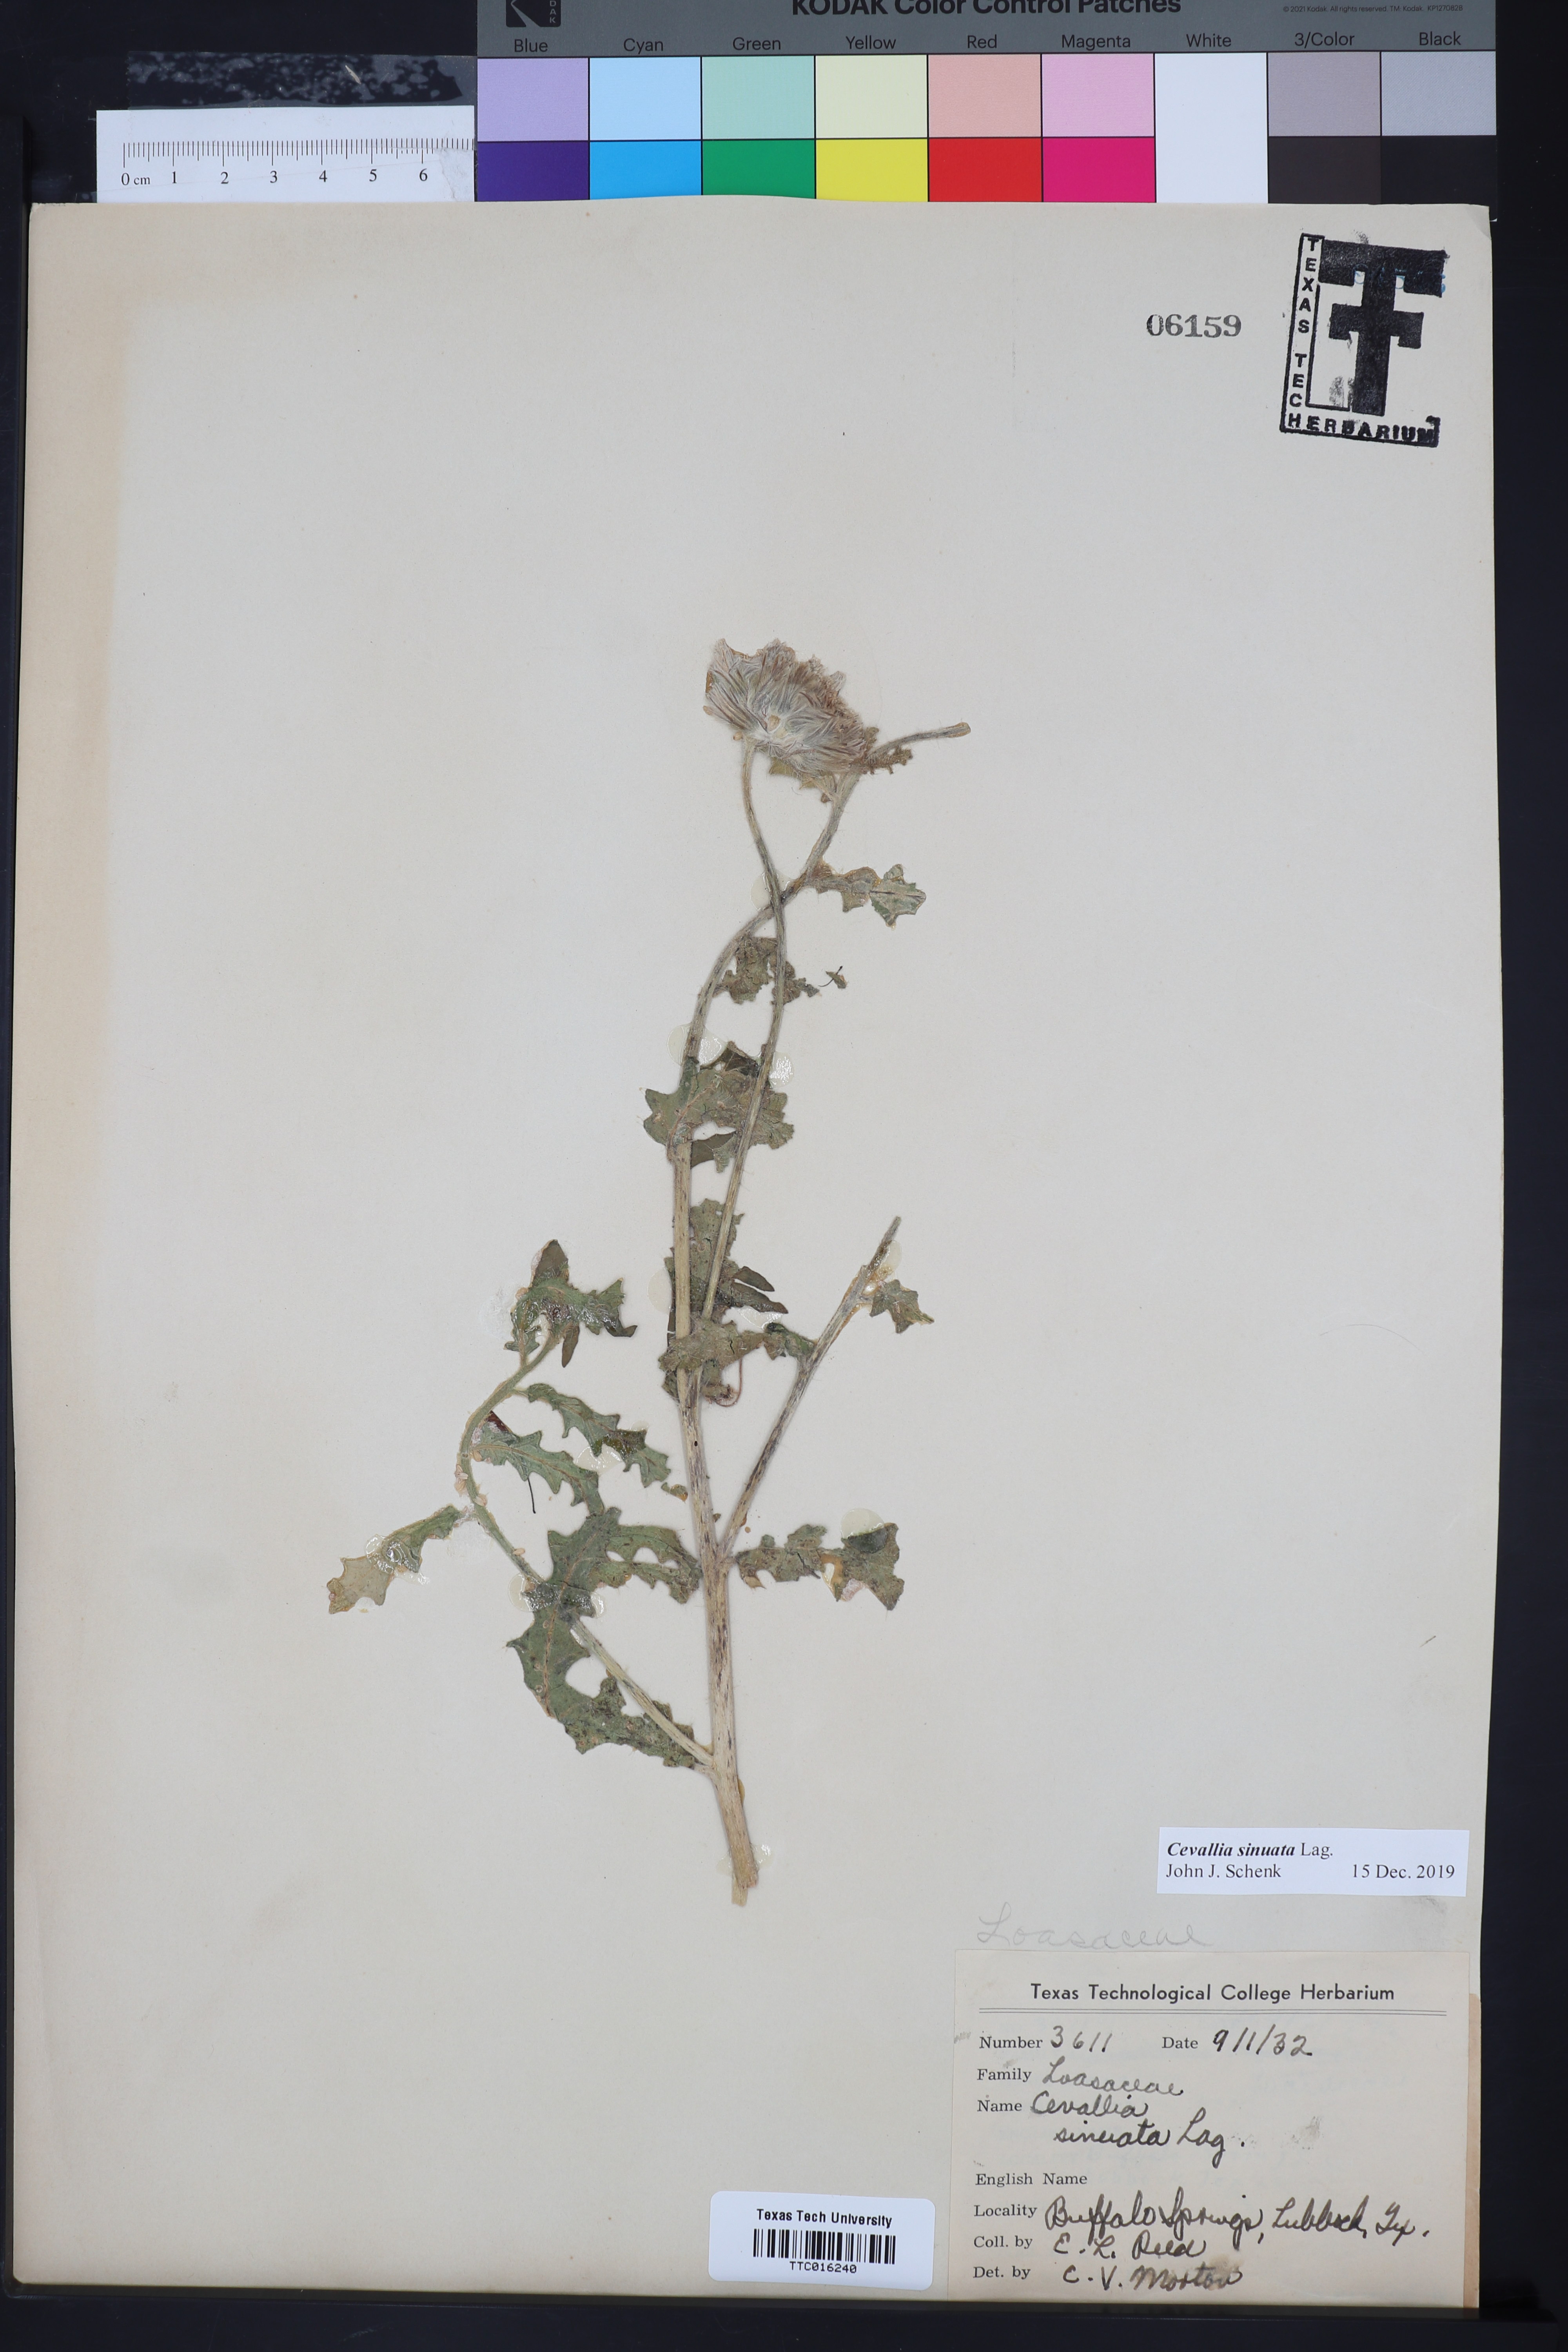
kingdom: Plantae
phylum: Tracheophyta
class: Magnoliopsida
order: Cornales
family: Loasaceae
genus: Cevallia
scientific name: Cevallia sinuata
